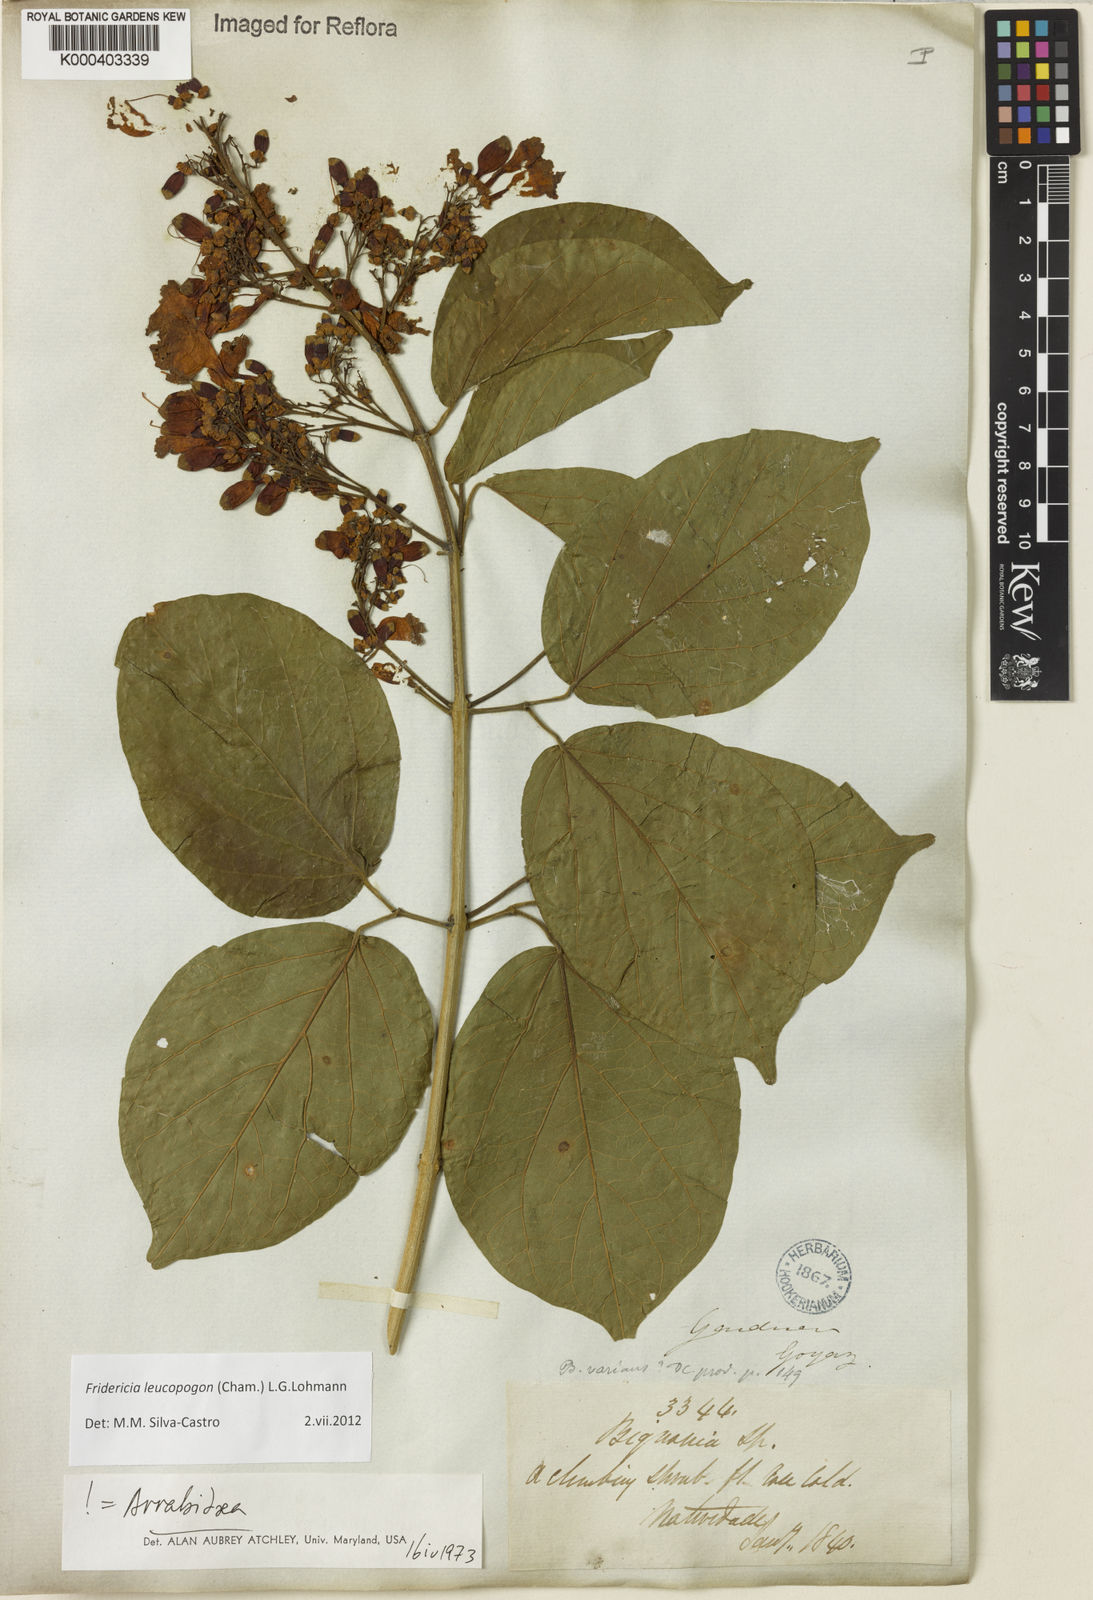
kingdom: Plantae
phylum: Tracheophyta
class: Magnoliopsida
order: Lamiales
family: Bignoniaceae
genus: Fridericia
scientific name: Fridericia leucopogon
